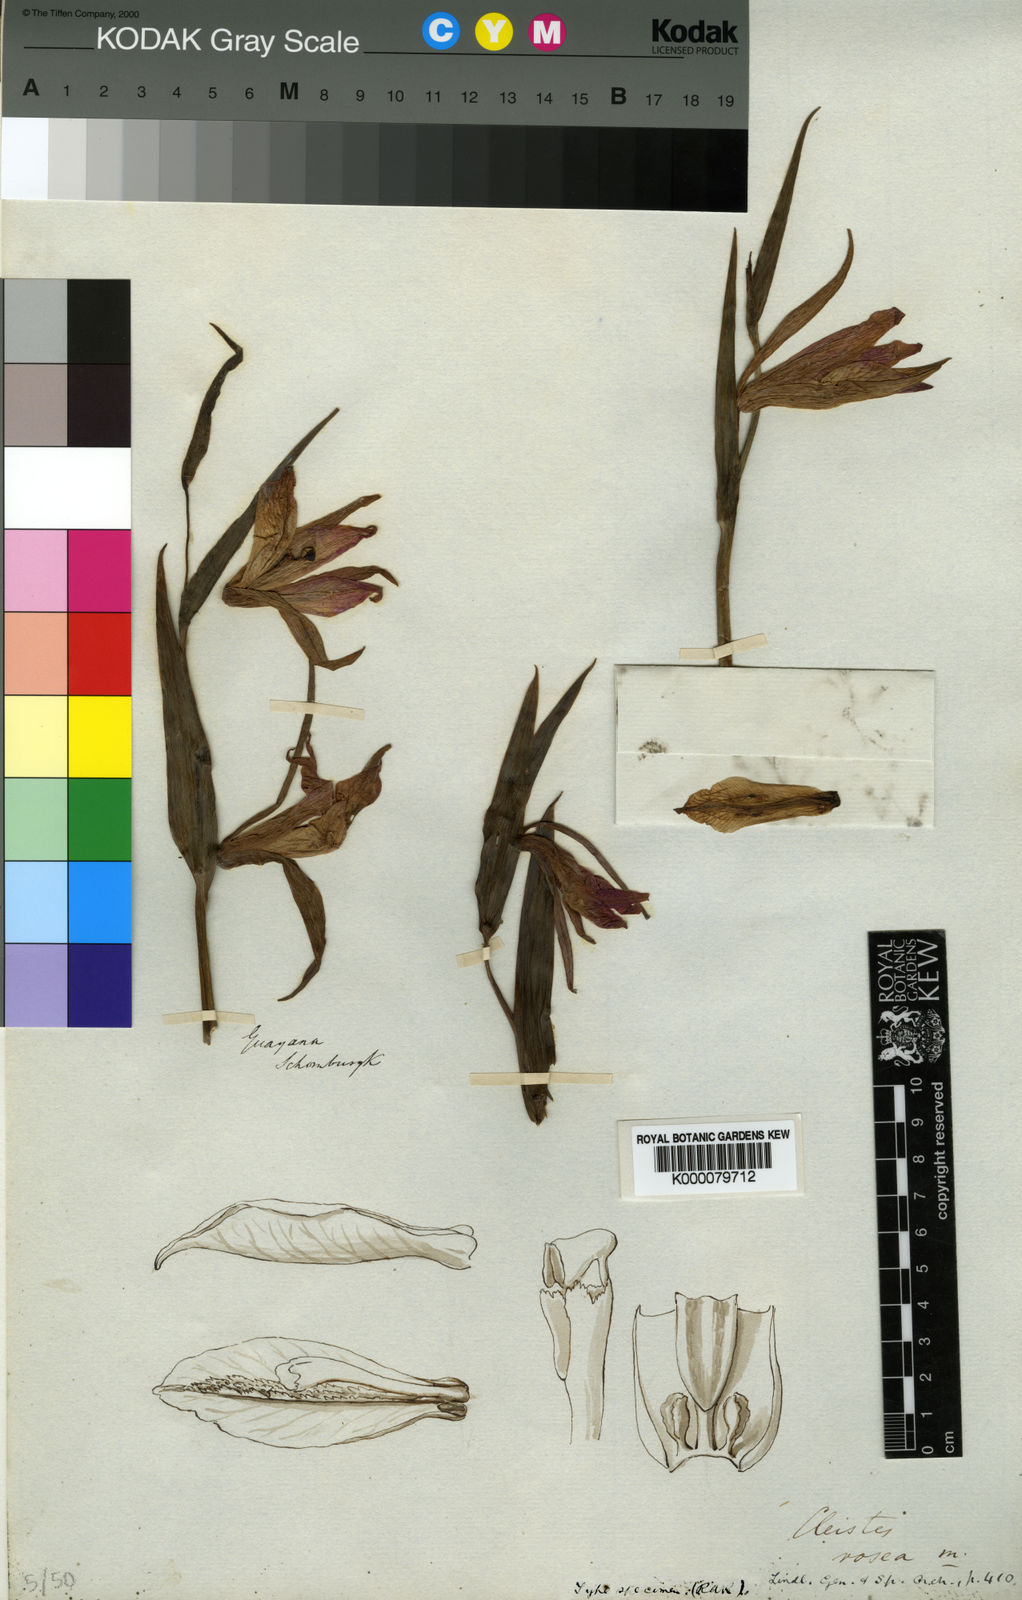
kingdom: Plantae
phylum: Tracheophyta
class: Liliopsida
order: Asparagales
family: Orchidaceae
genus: Cleistes
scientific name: Cleistes rosea
